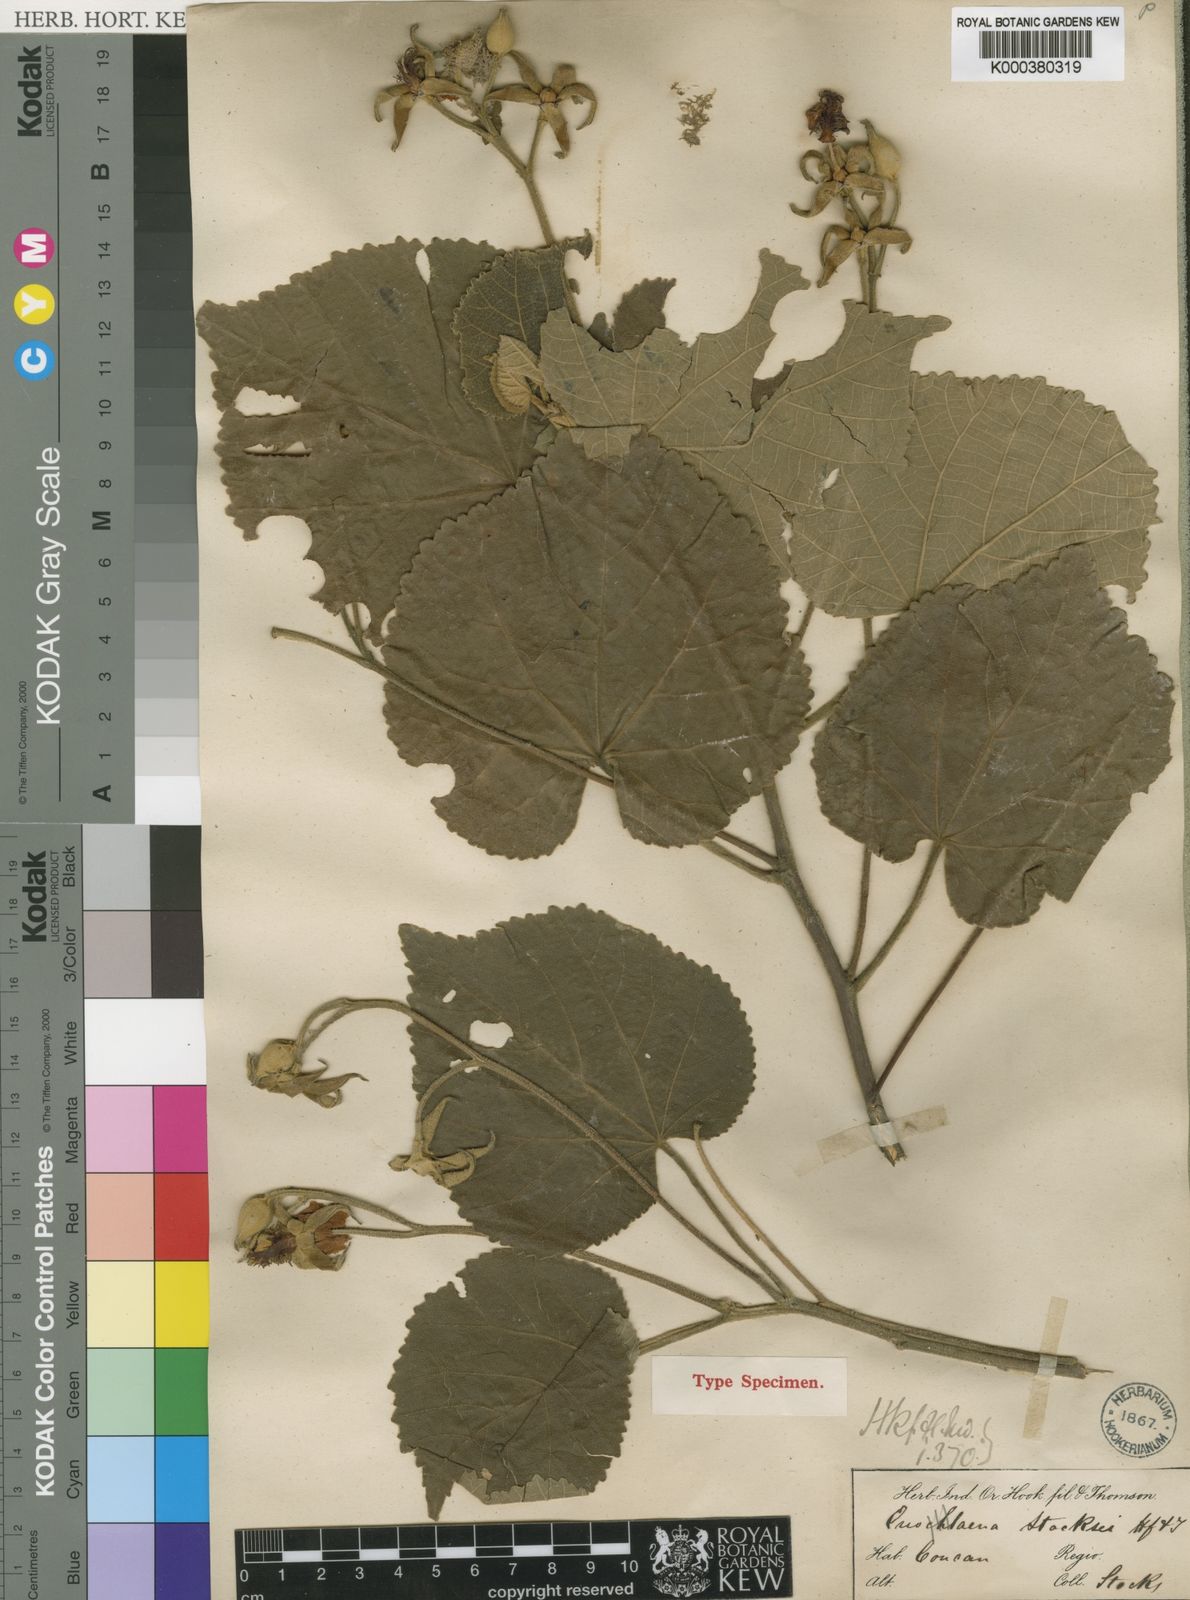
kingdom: Plantae
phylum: Tracheophyta
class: Magnoliopsida
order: Malvales
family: Malvaceae
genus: Eriolaena
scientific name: Eriolaena stocksii
